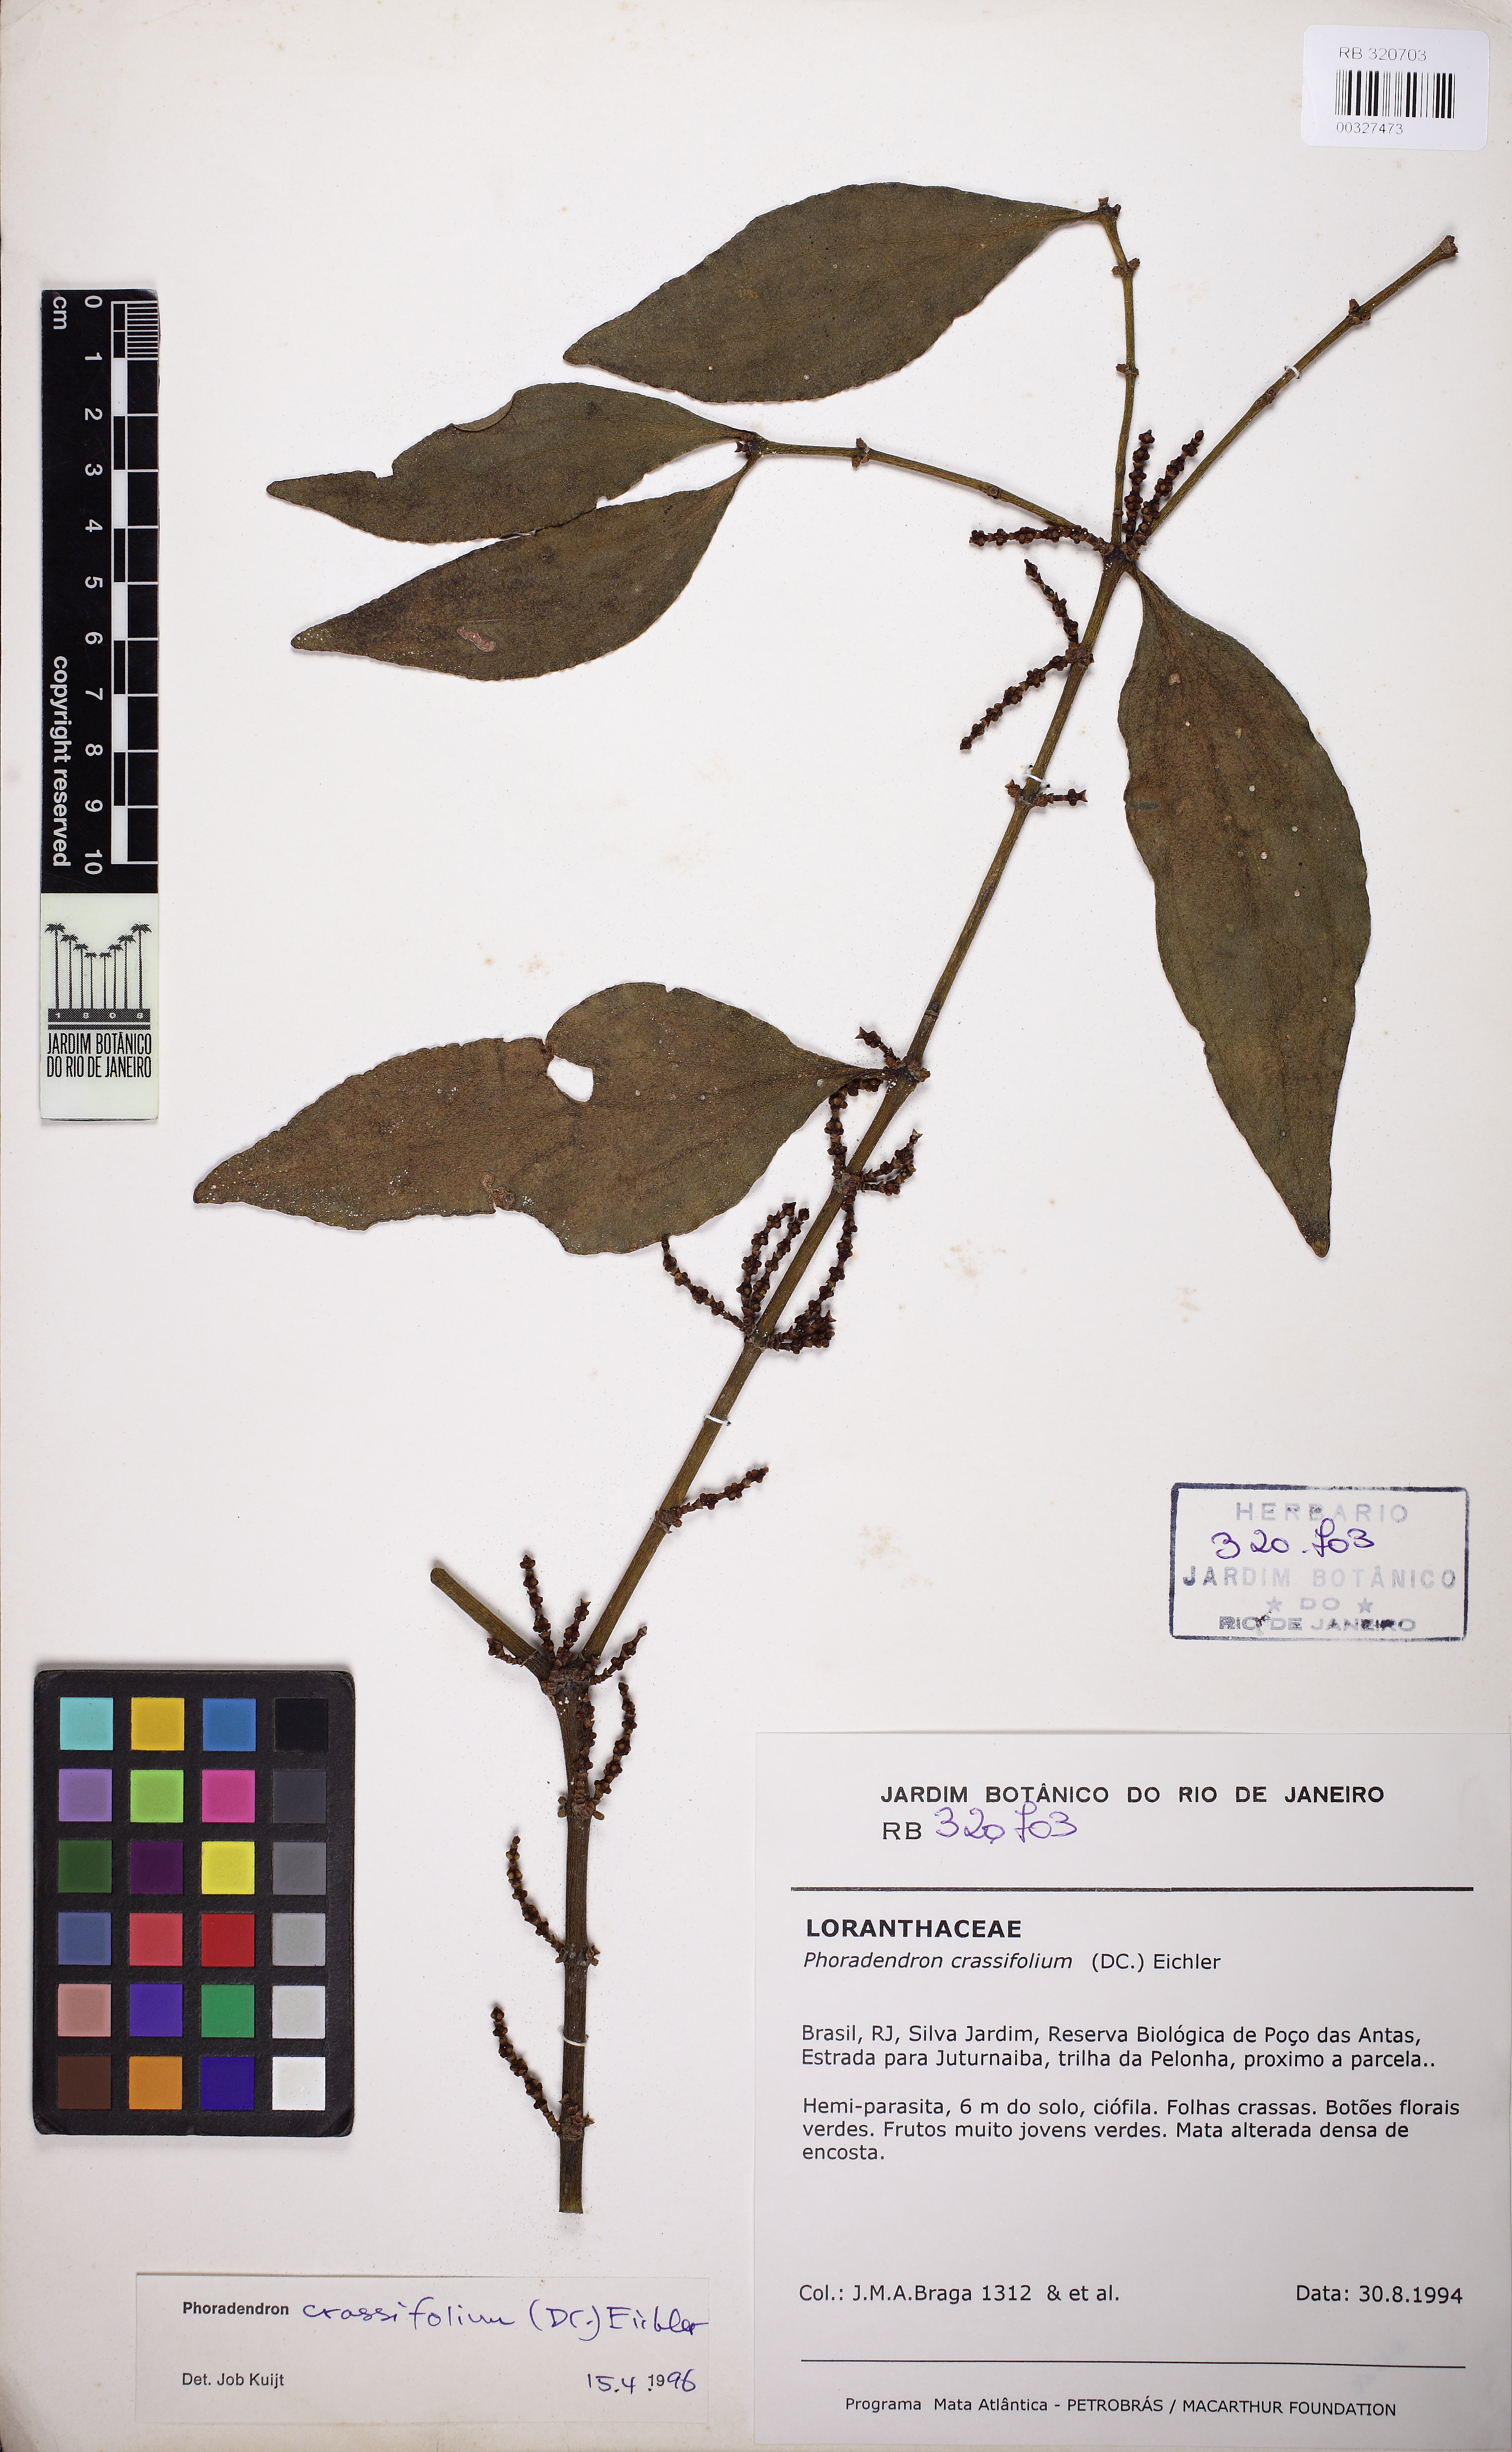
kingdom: Plantae
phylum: Tracheophyta
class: Magnoliopsida
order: Santalales
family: Viscaceae
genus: Phoradendron
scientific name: Phoradendron crassifolium
